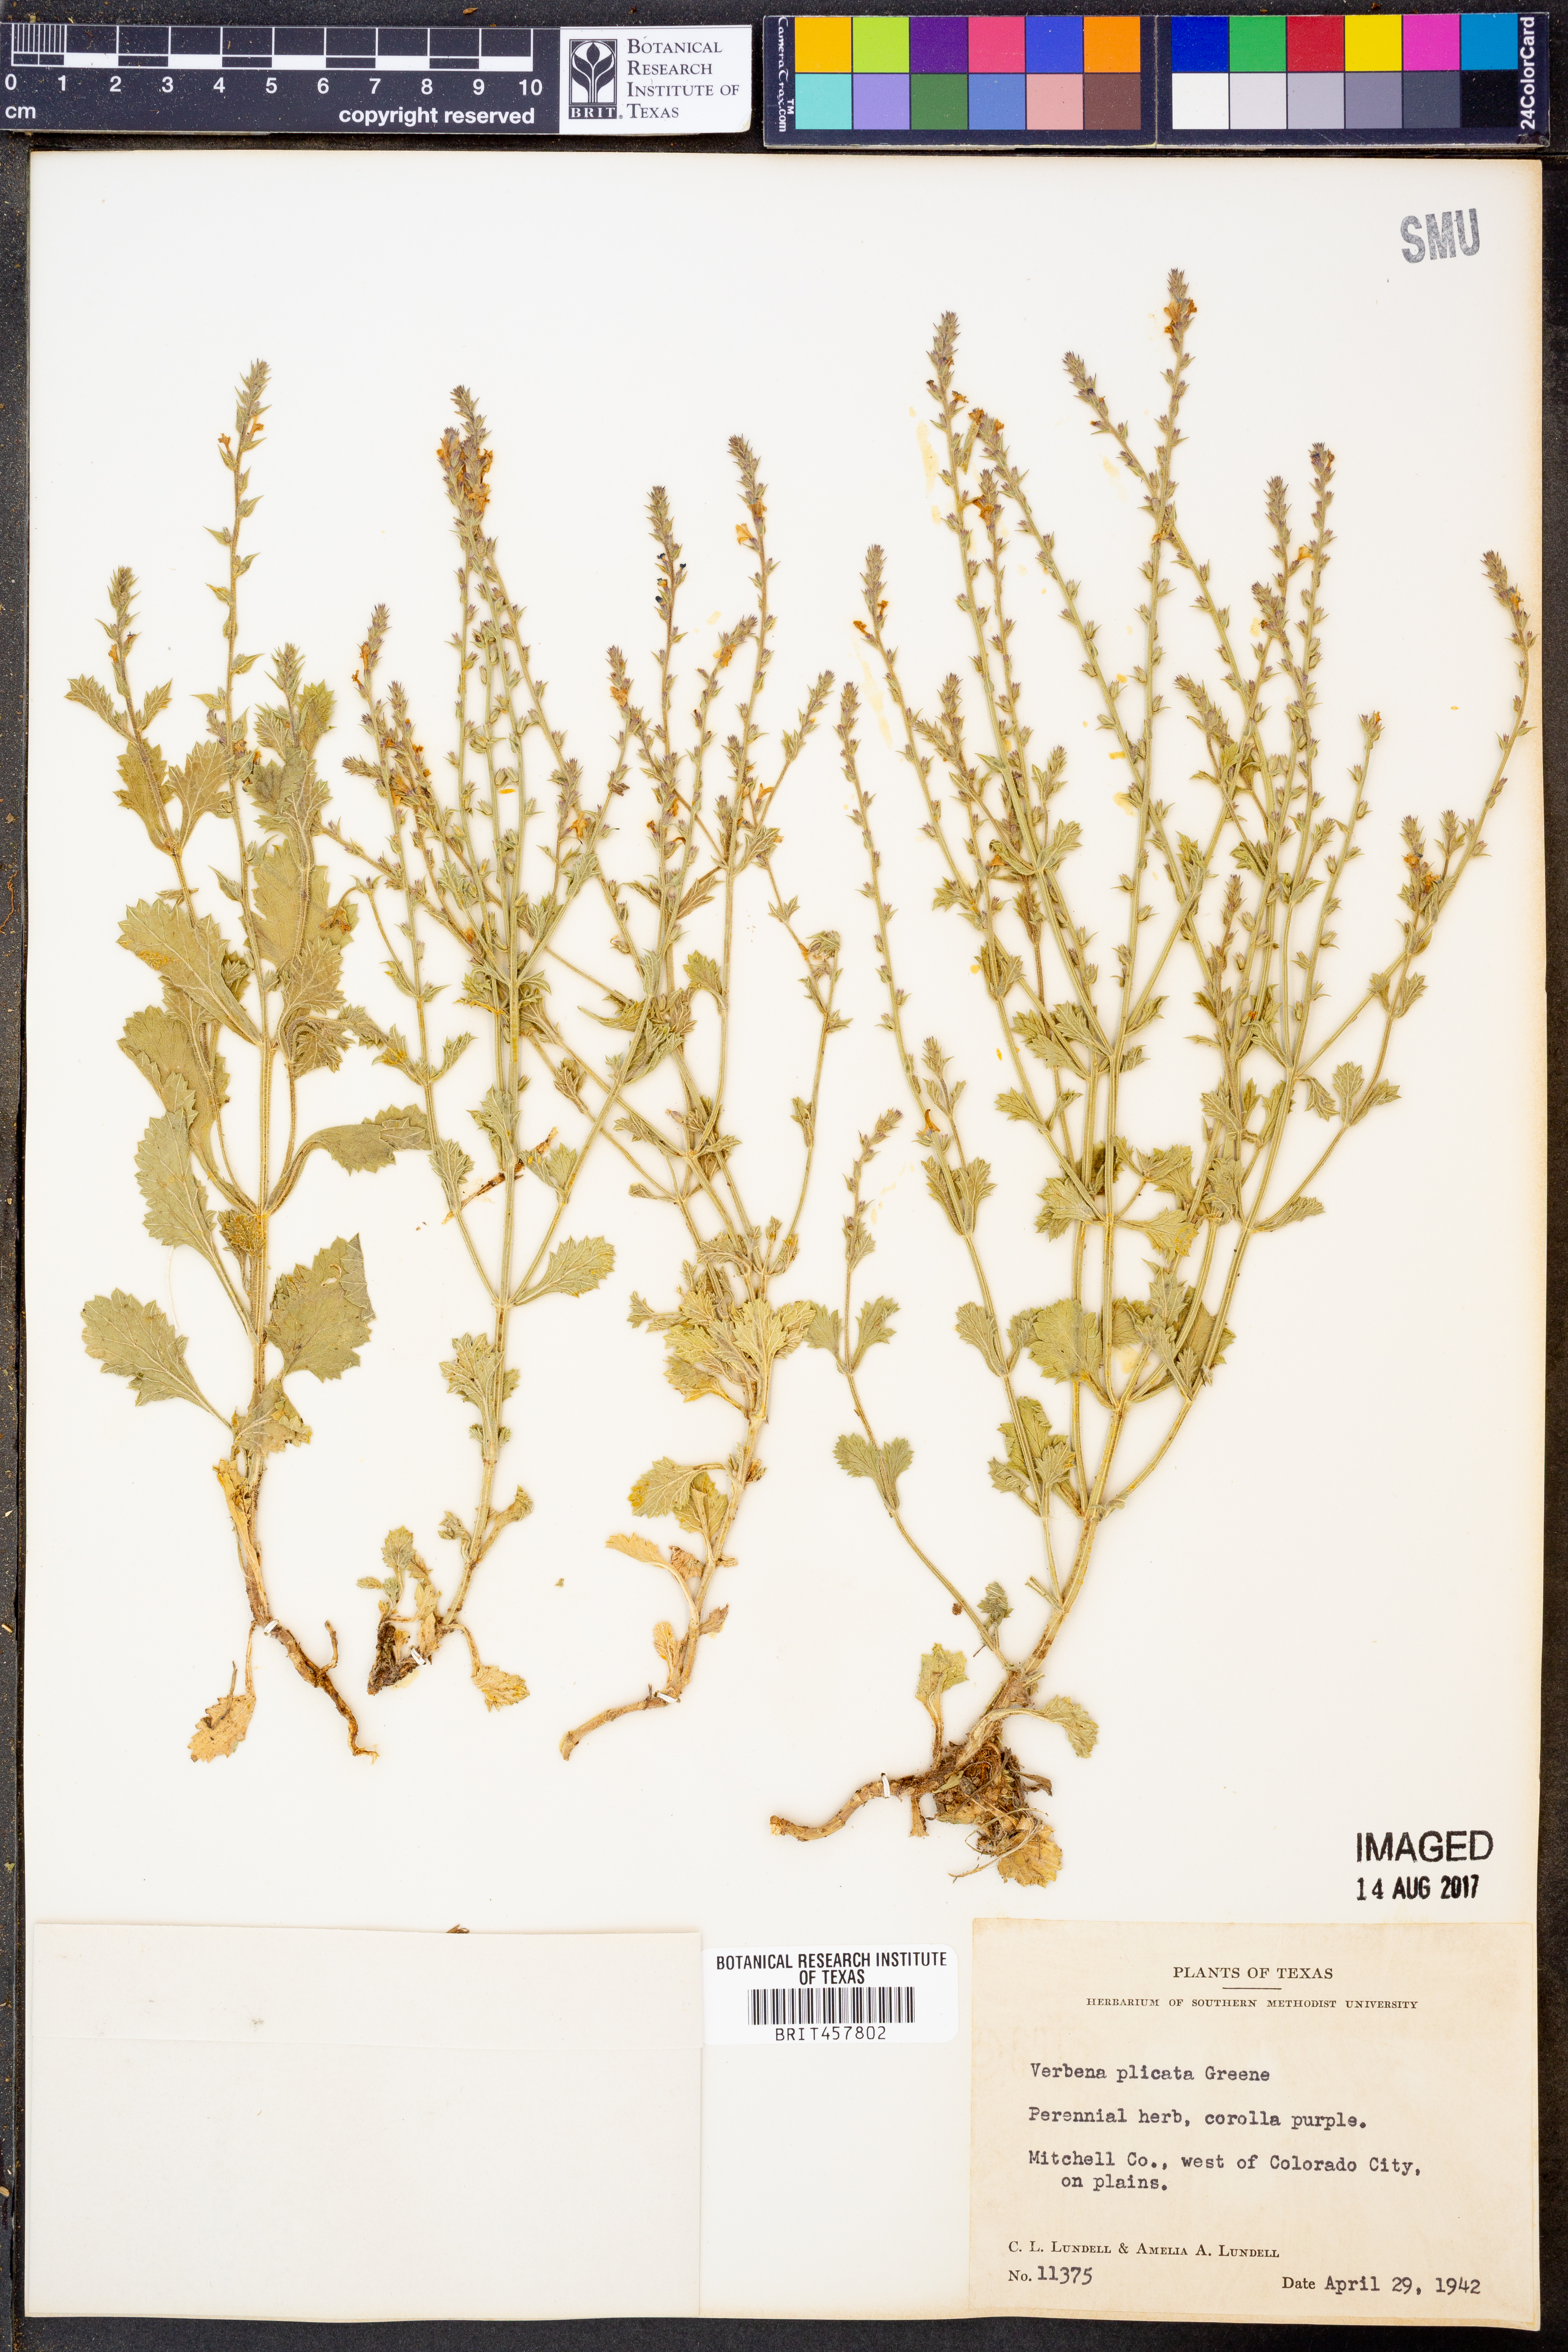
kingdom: Plantae
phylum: Tracheophyta
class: Magnoliopsida
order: Lamiales
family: Verbenaceae
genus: Verbena
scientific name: Verbena plicata
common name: Fan-leaf vervain
